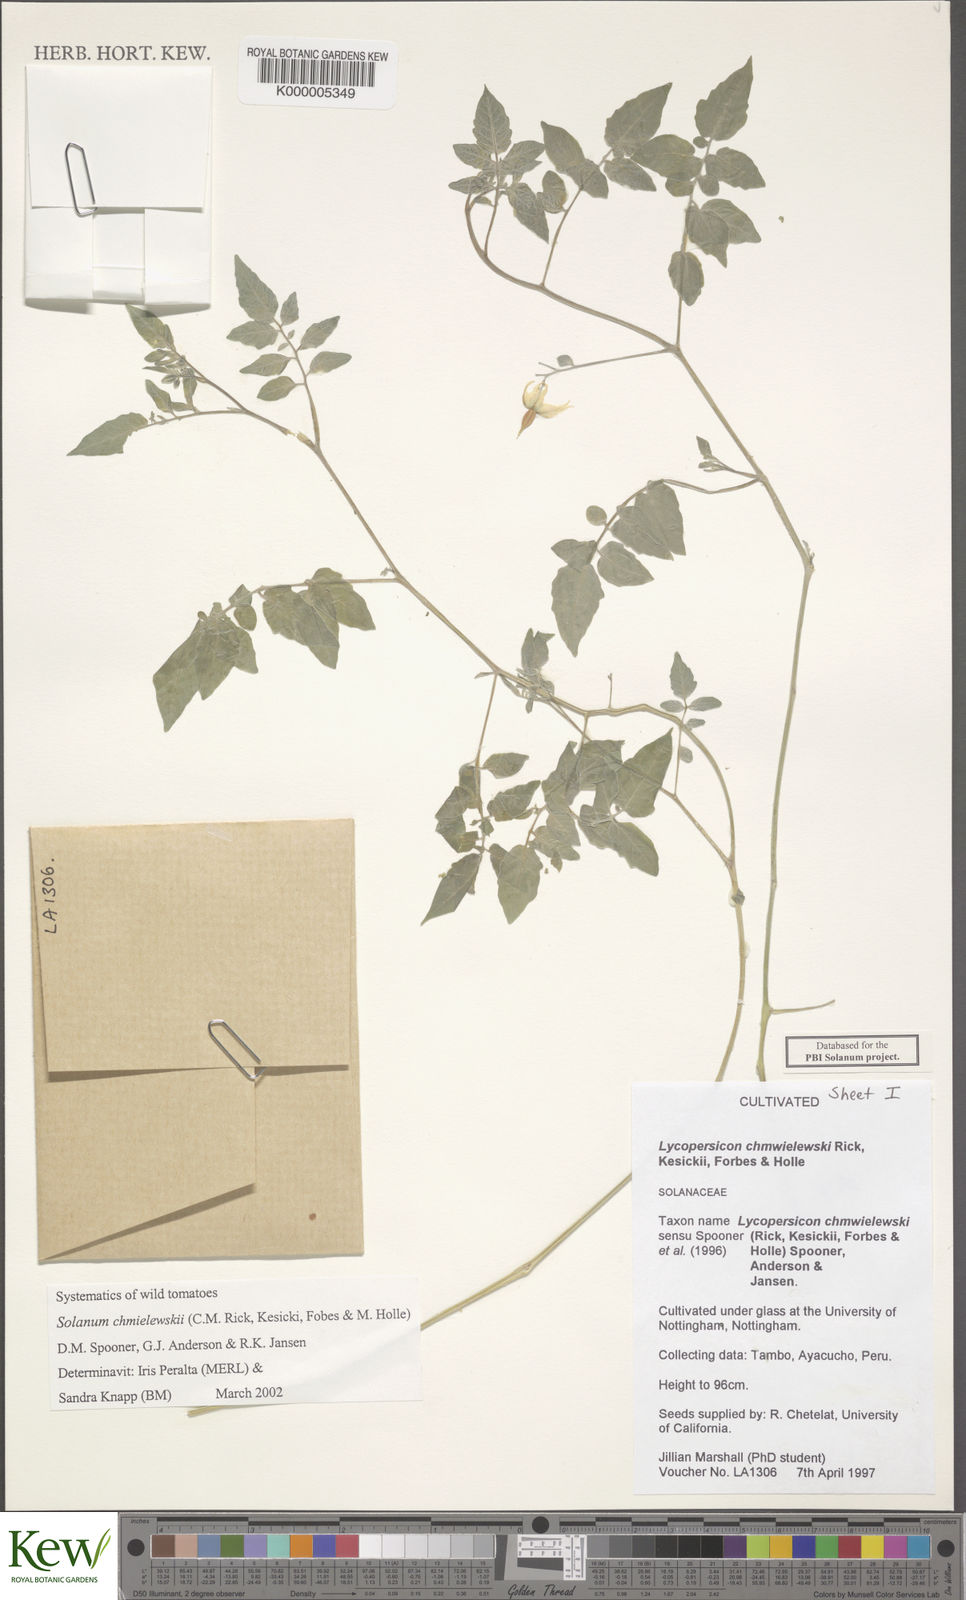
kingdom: Plantae
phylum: Tracheophyta
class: Magnoliopsida
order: Solanales
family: Solanaceae
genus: Solanum
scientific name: Solanum
